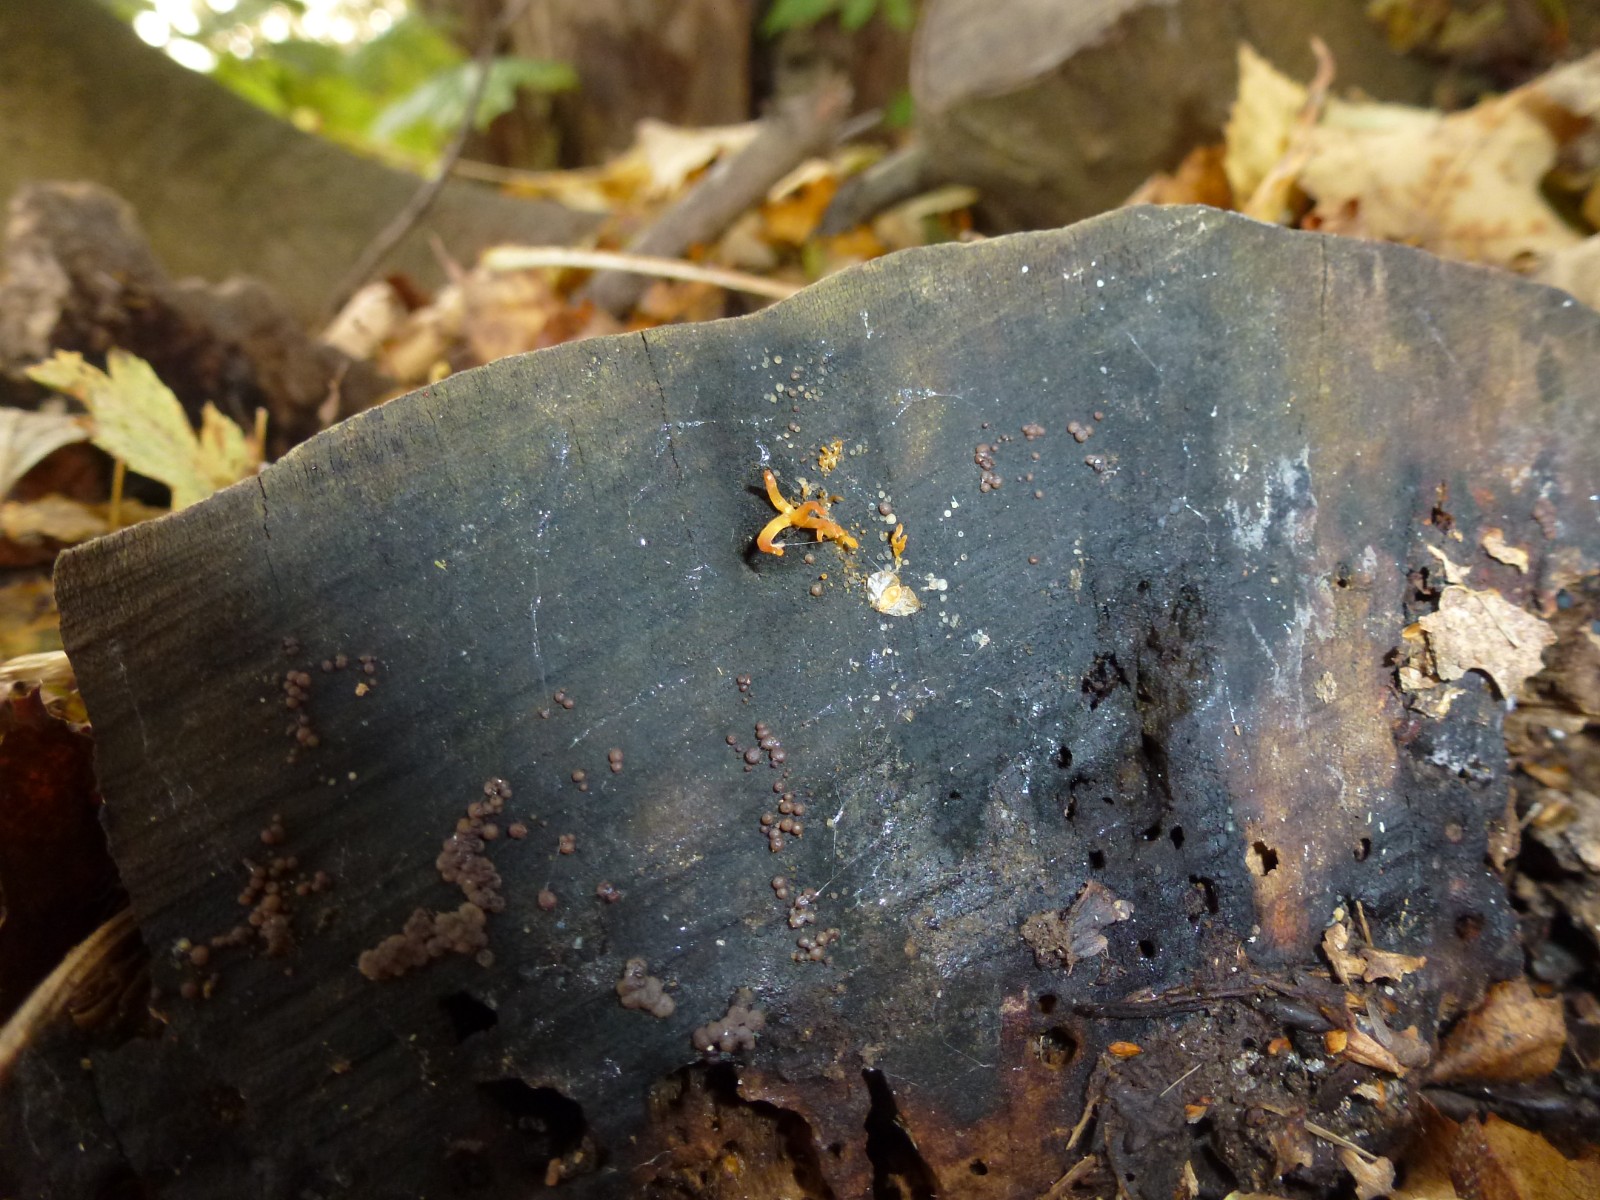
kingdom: Fungi
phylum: Basidiomycota
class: Dacrymycetes
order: Dacrymycetales
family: Dacrymycetaceae
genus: Calocera
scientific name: Calocera cornea
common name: liden guldgaffel
